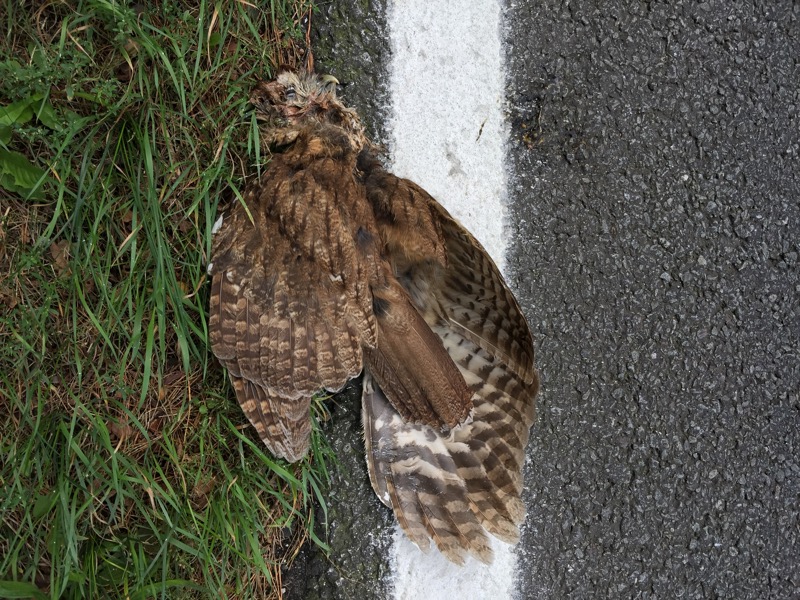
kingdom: Animalia
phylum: Chordata
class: Aves
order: Strigiformes
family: Strigidae
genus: Strix
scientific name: Strix aluco
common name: Tawny owl
